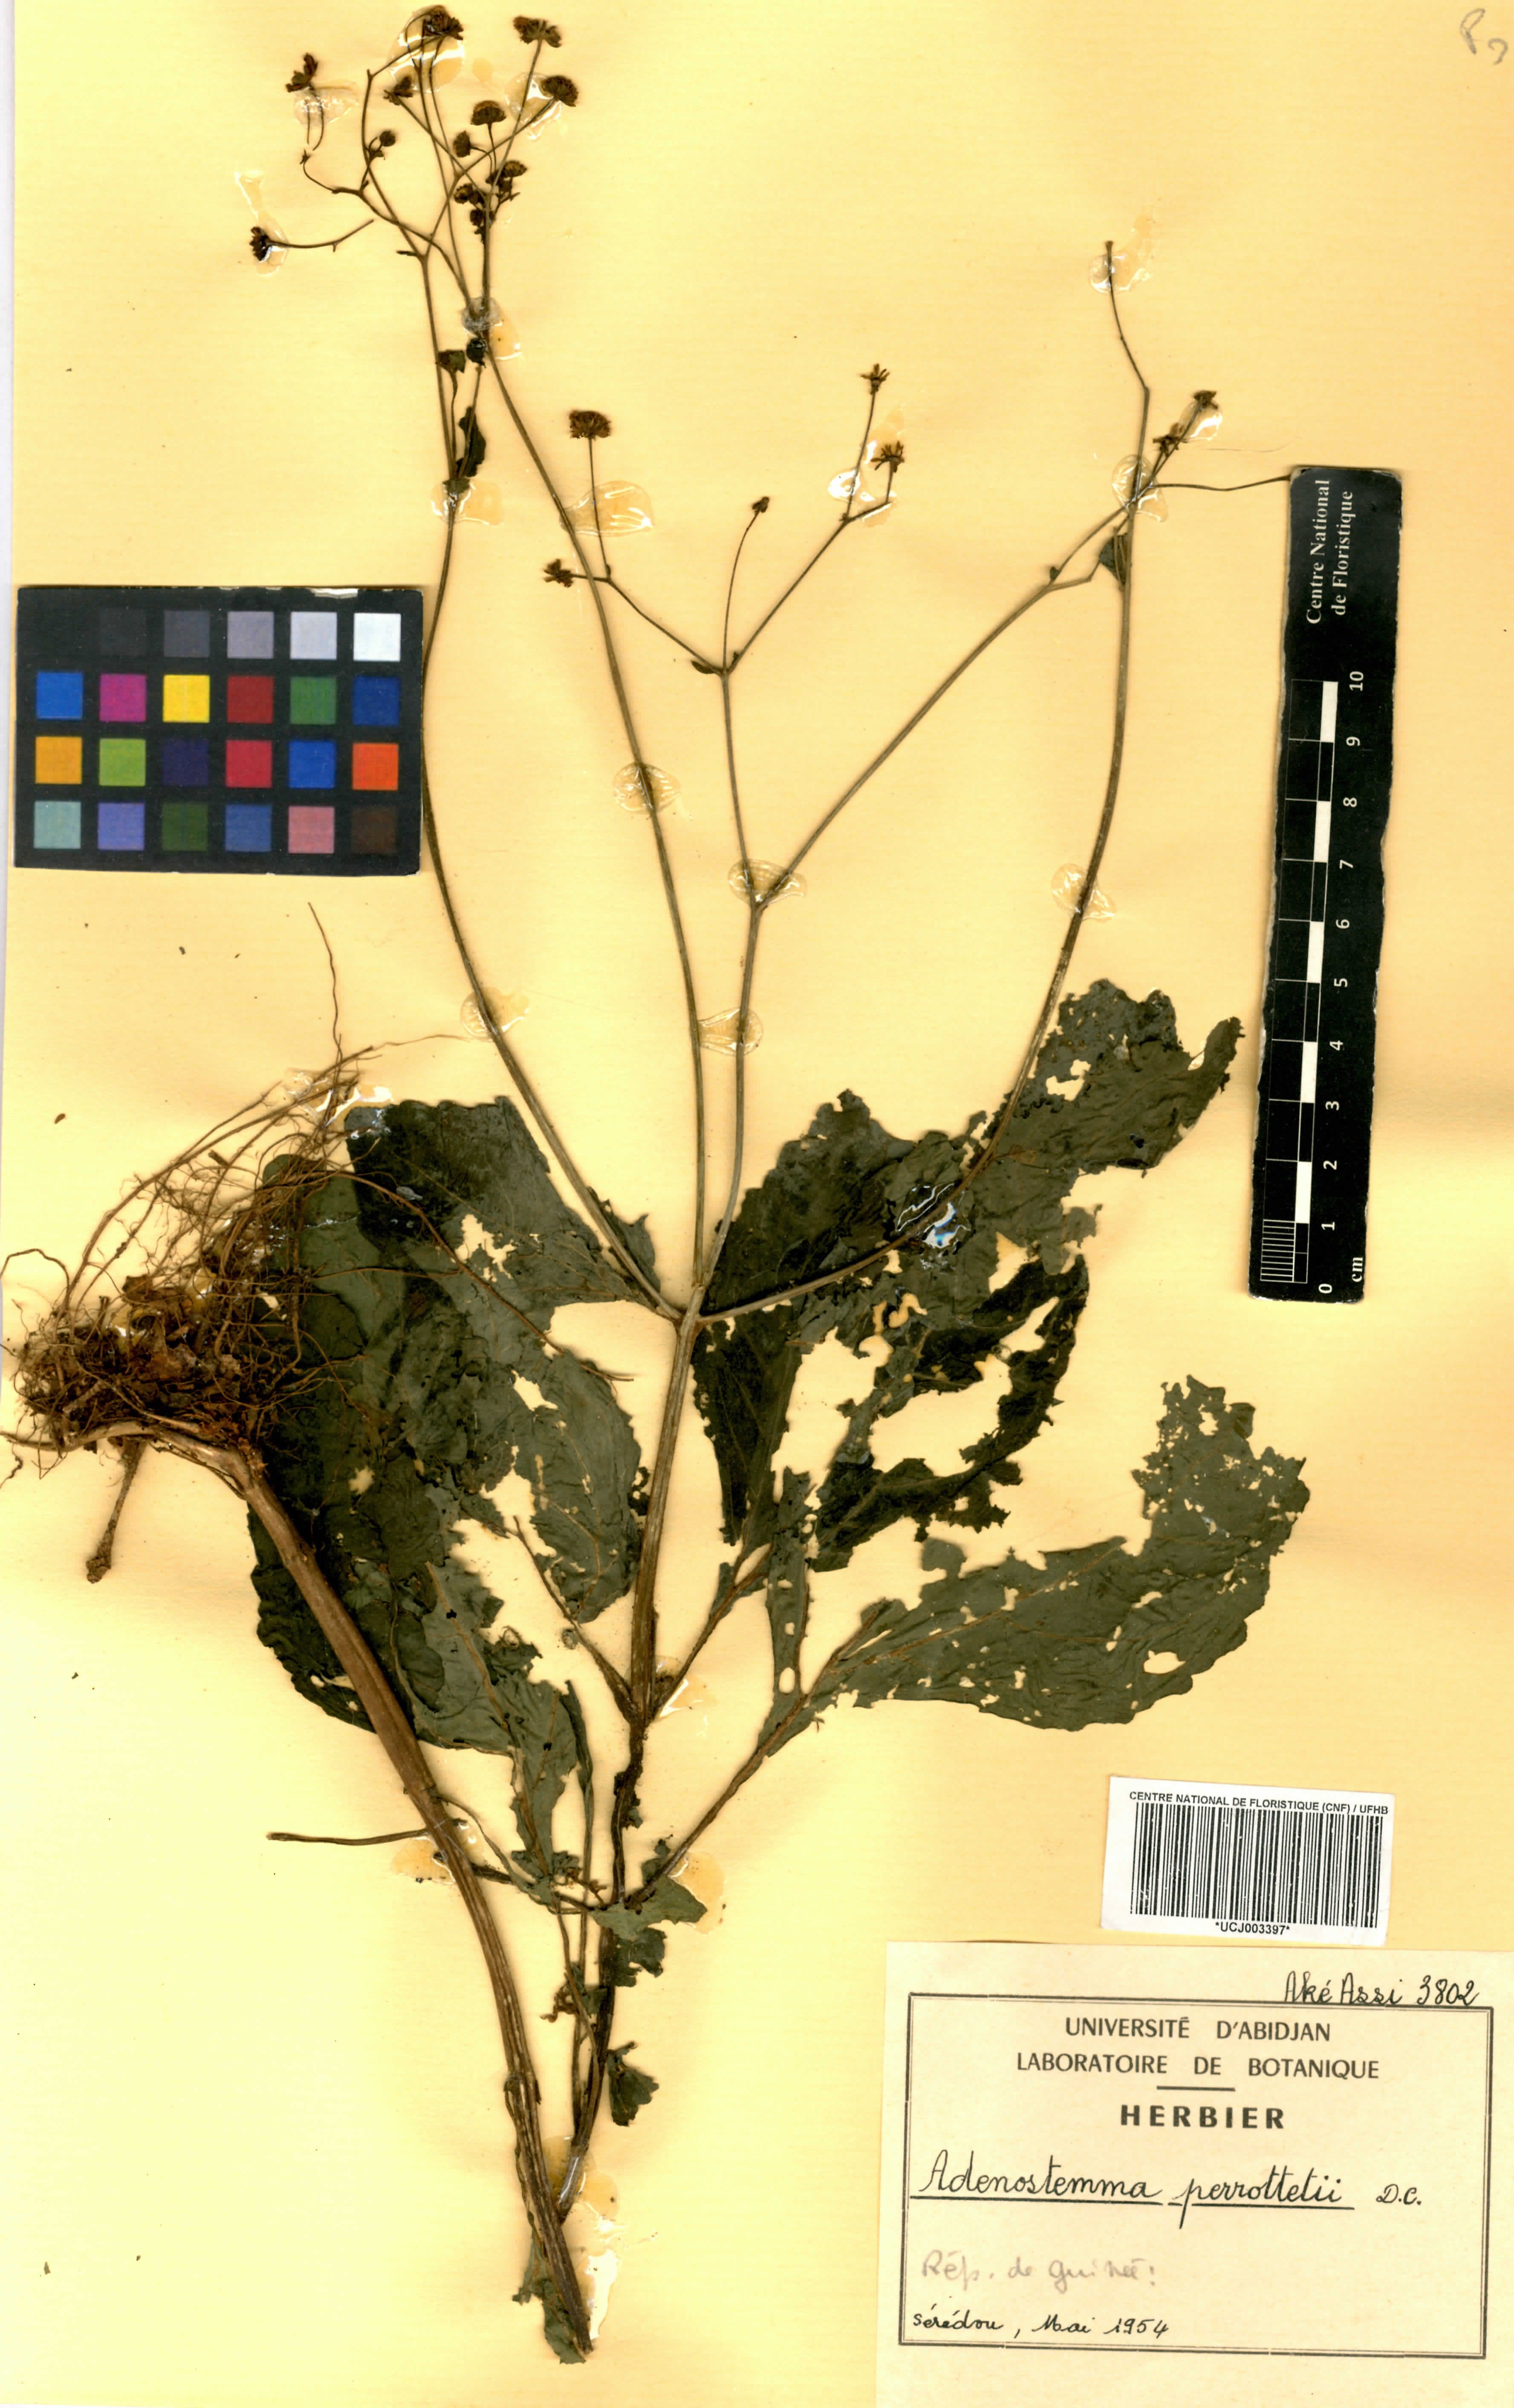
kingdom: Plantae
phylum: Tracheophyta
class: Magnoliopsida
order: Asterales
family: Asteraceae
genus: Adenostemma
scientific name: Adenostemma viscosum
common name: Dungweed
